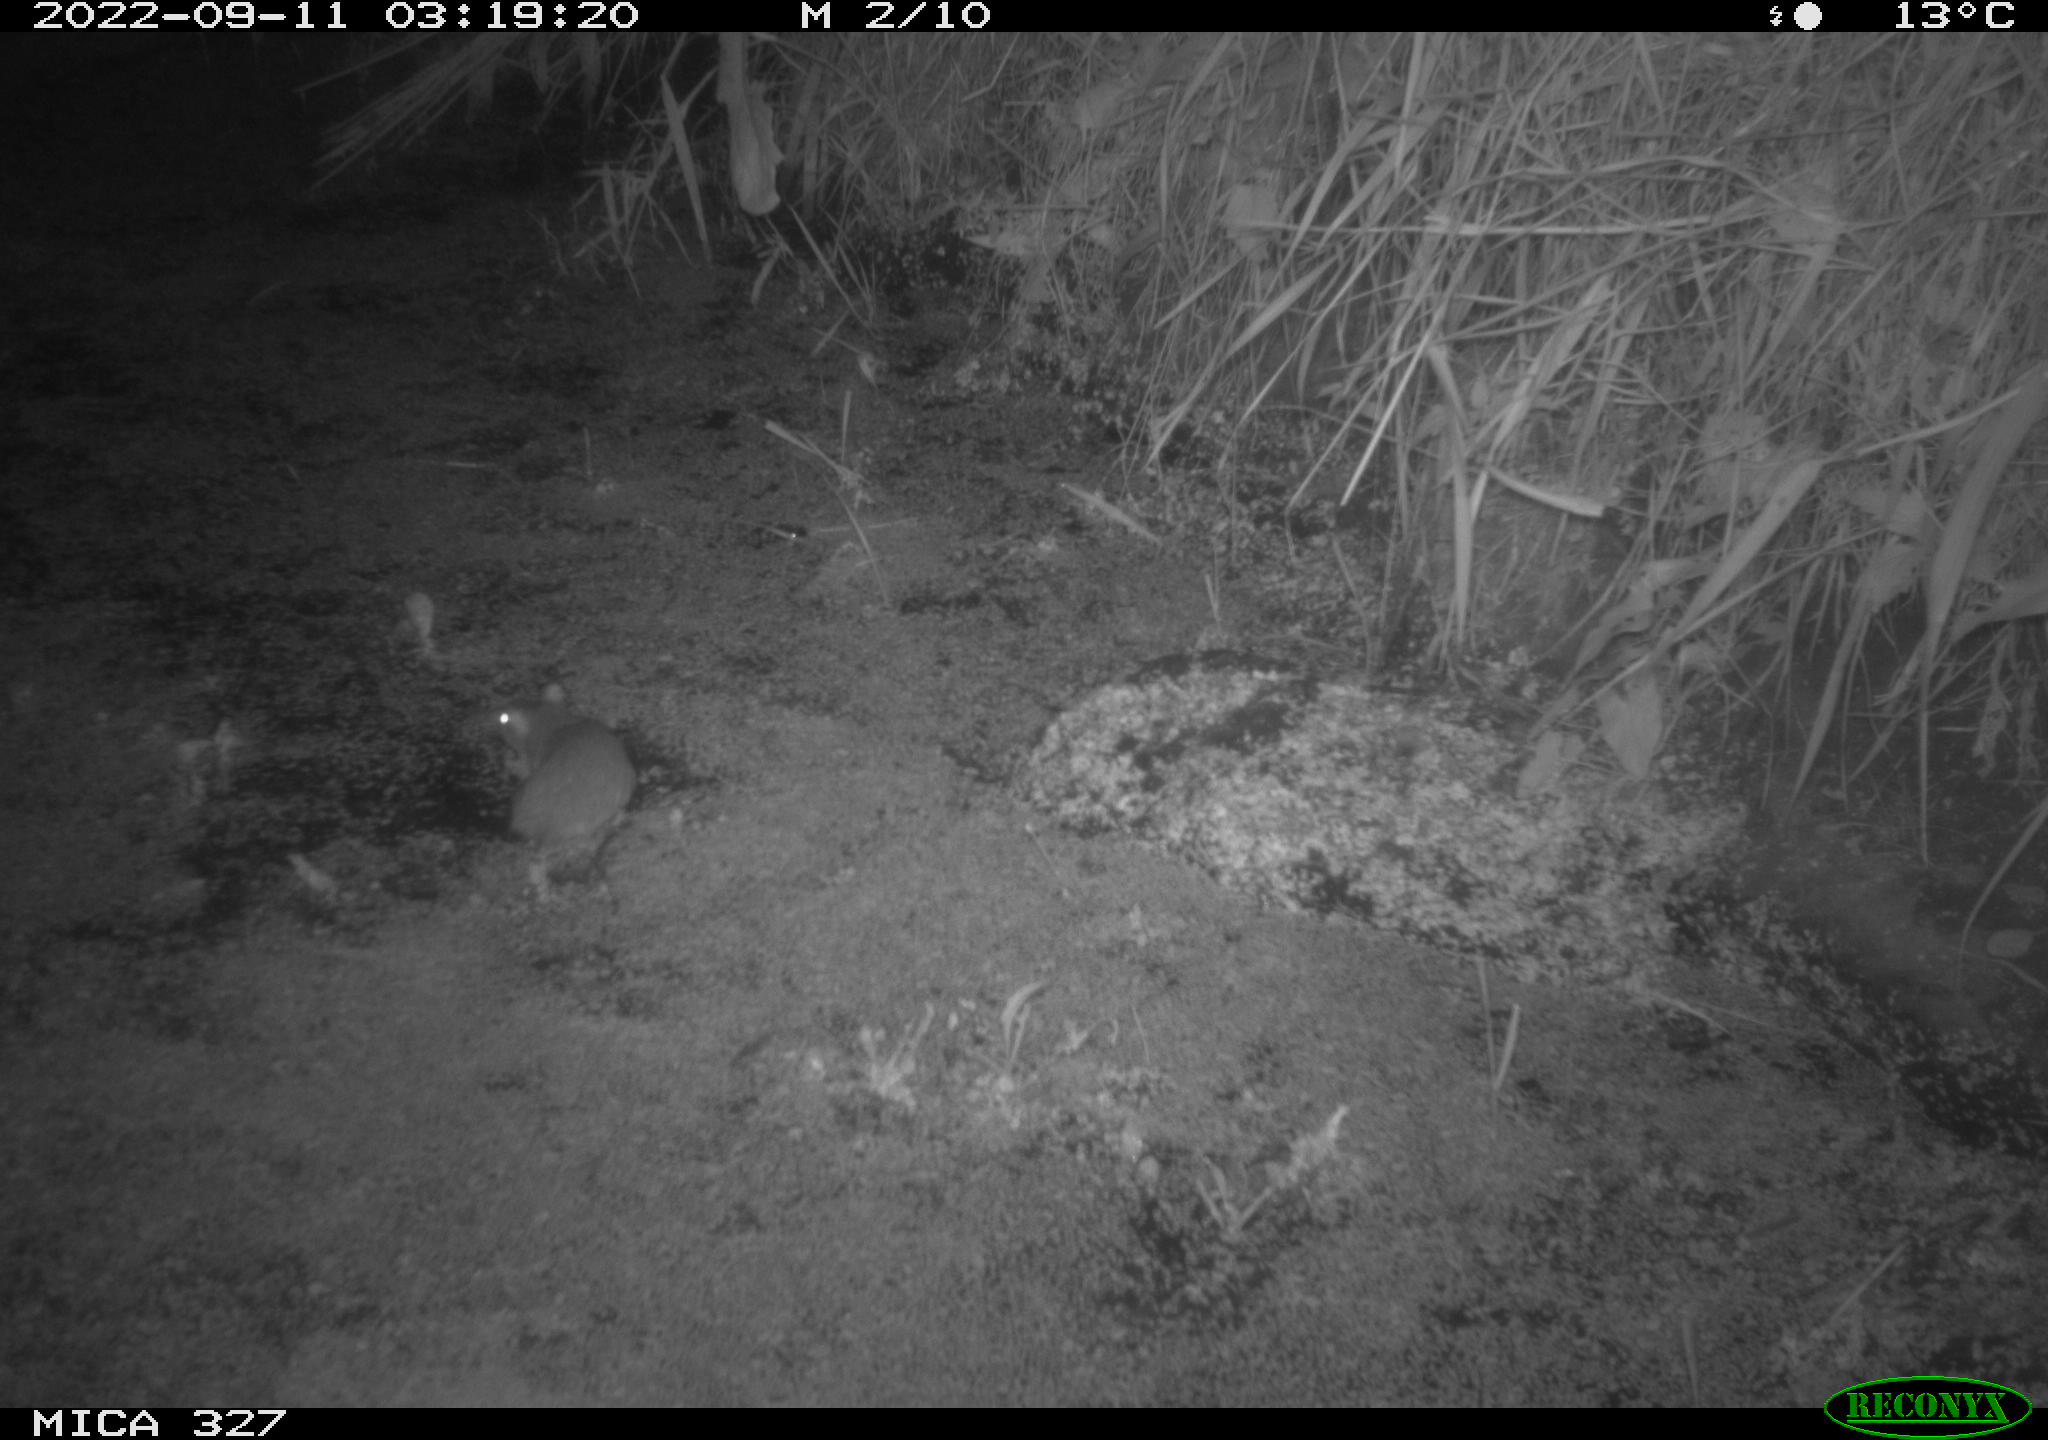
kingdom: Animalia
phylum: Chordata
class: Mammalia
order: Rodentia
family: Muridae
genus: Rattus
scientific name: Rattus norvegicus
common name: Brown rat
